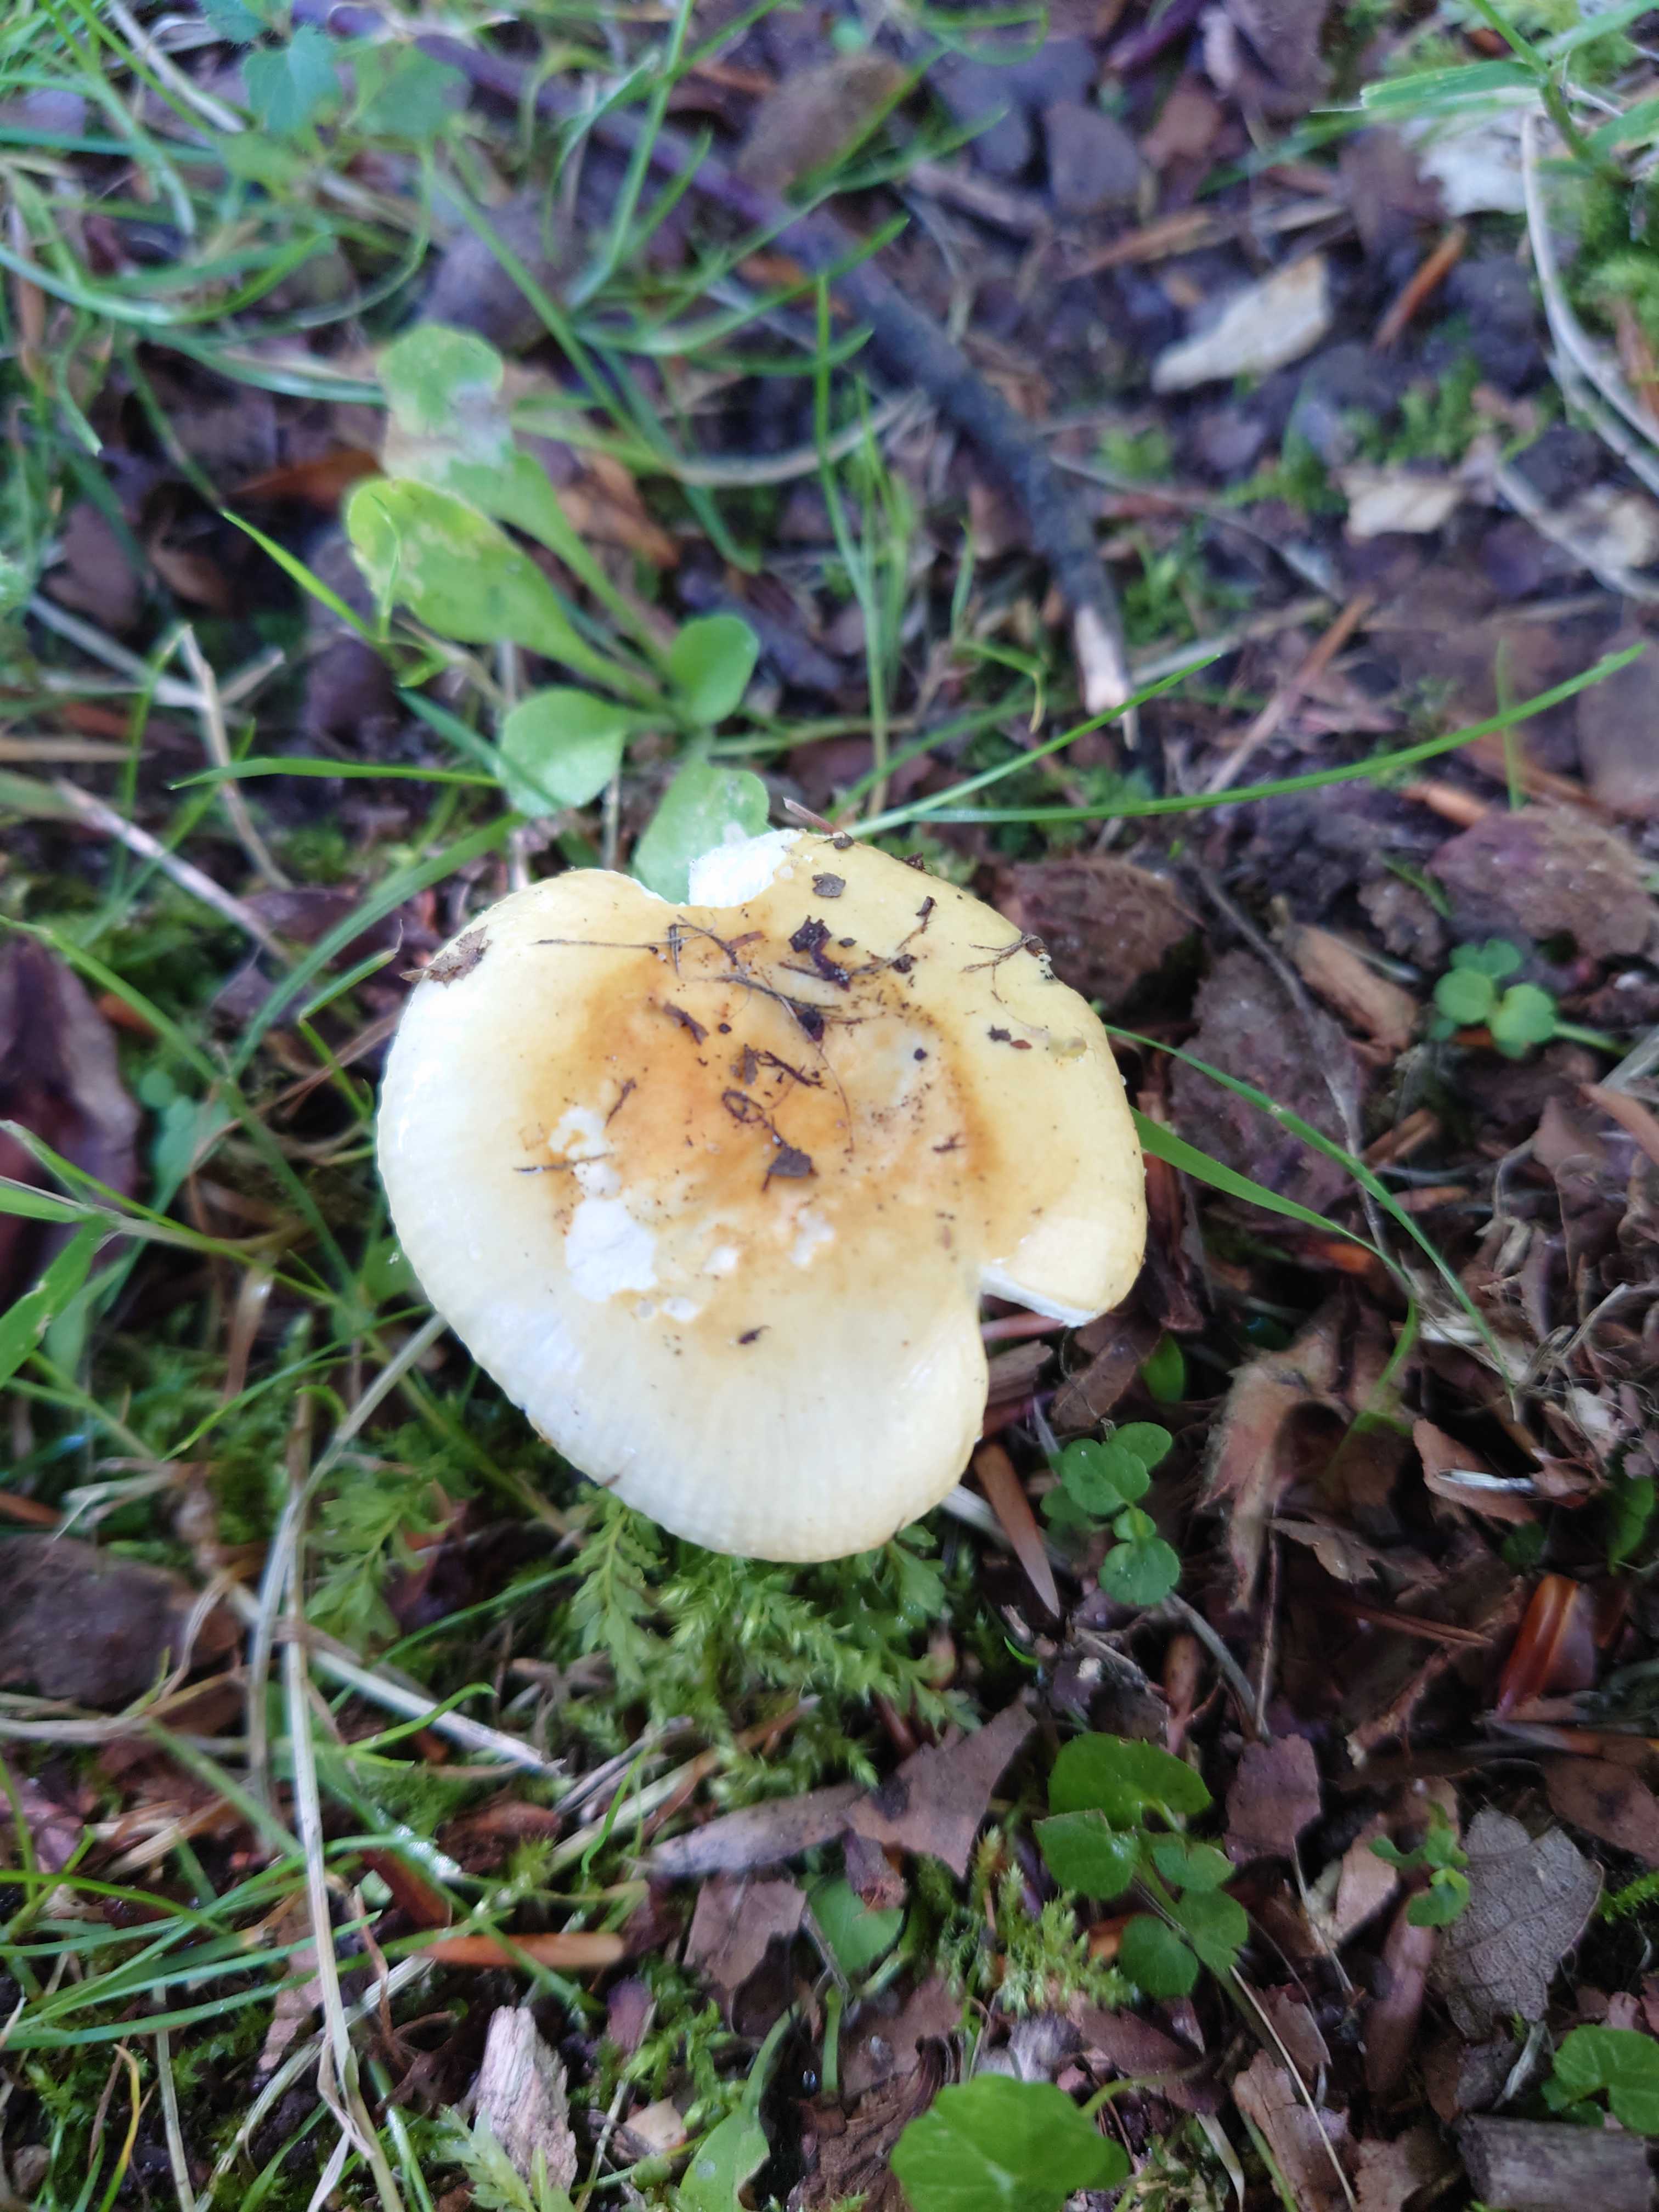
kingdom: Fungi
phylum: Basidiomycota
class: Agaricomycetes
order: Russulales
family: Russulaceae
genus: Russula
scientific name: Russula solaris
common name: sol-skørhat
